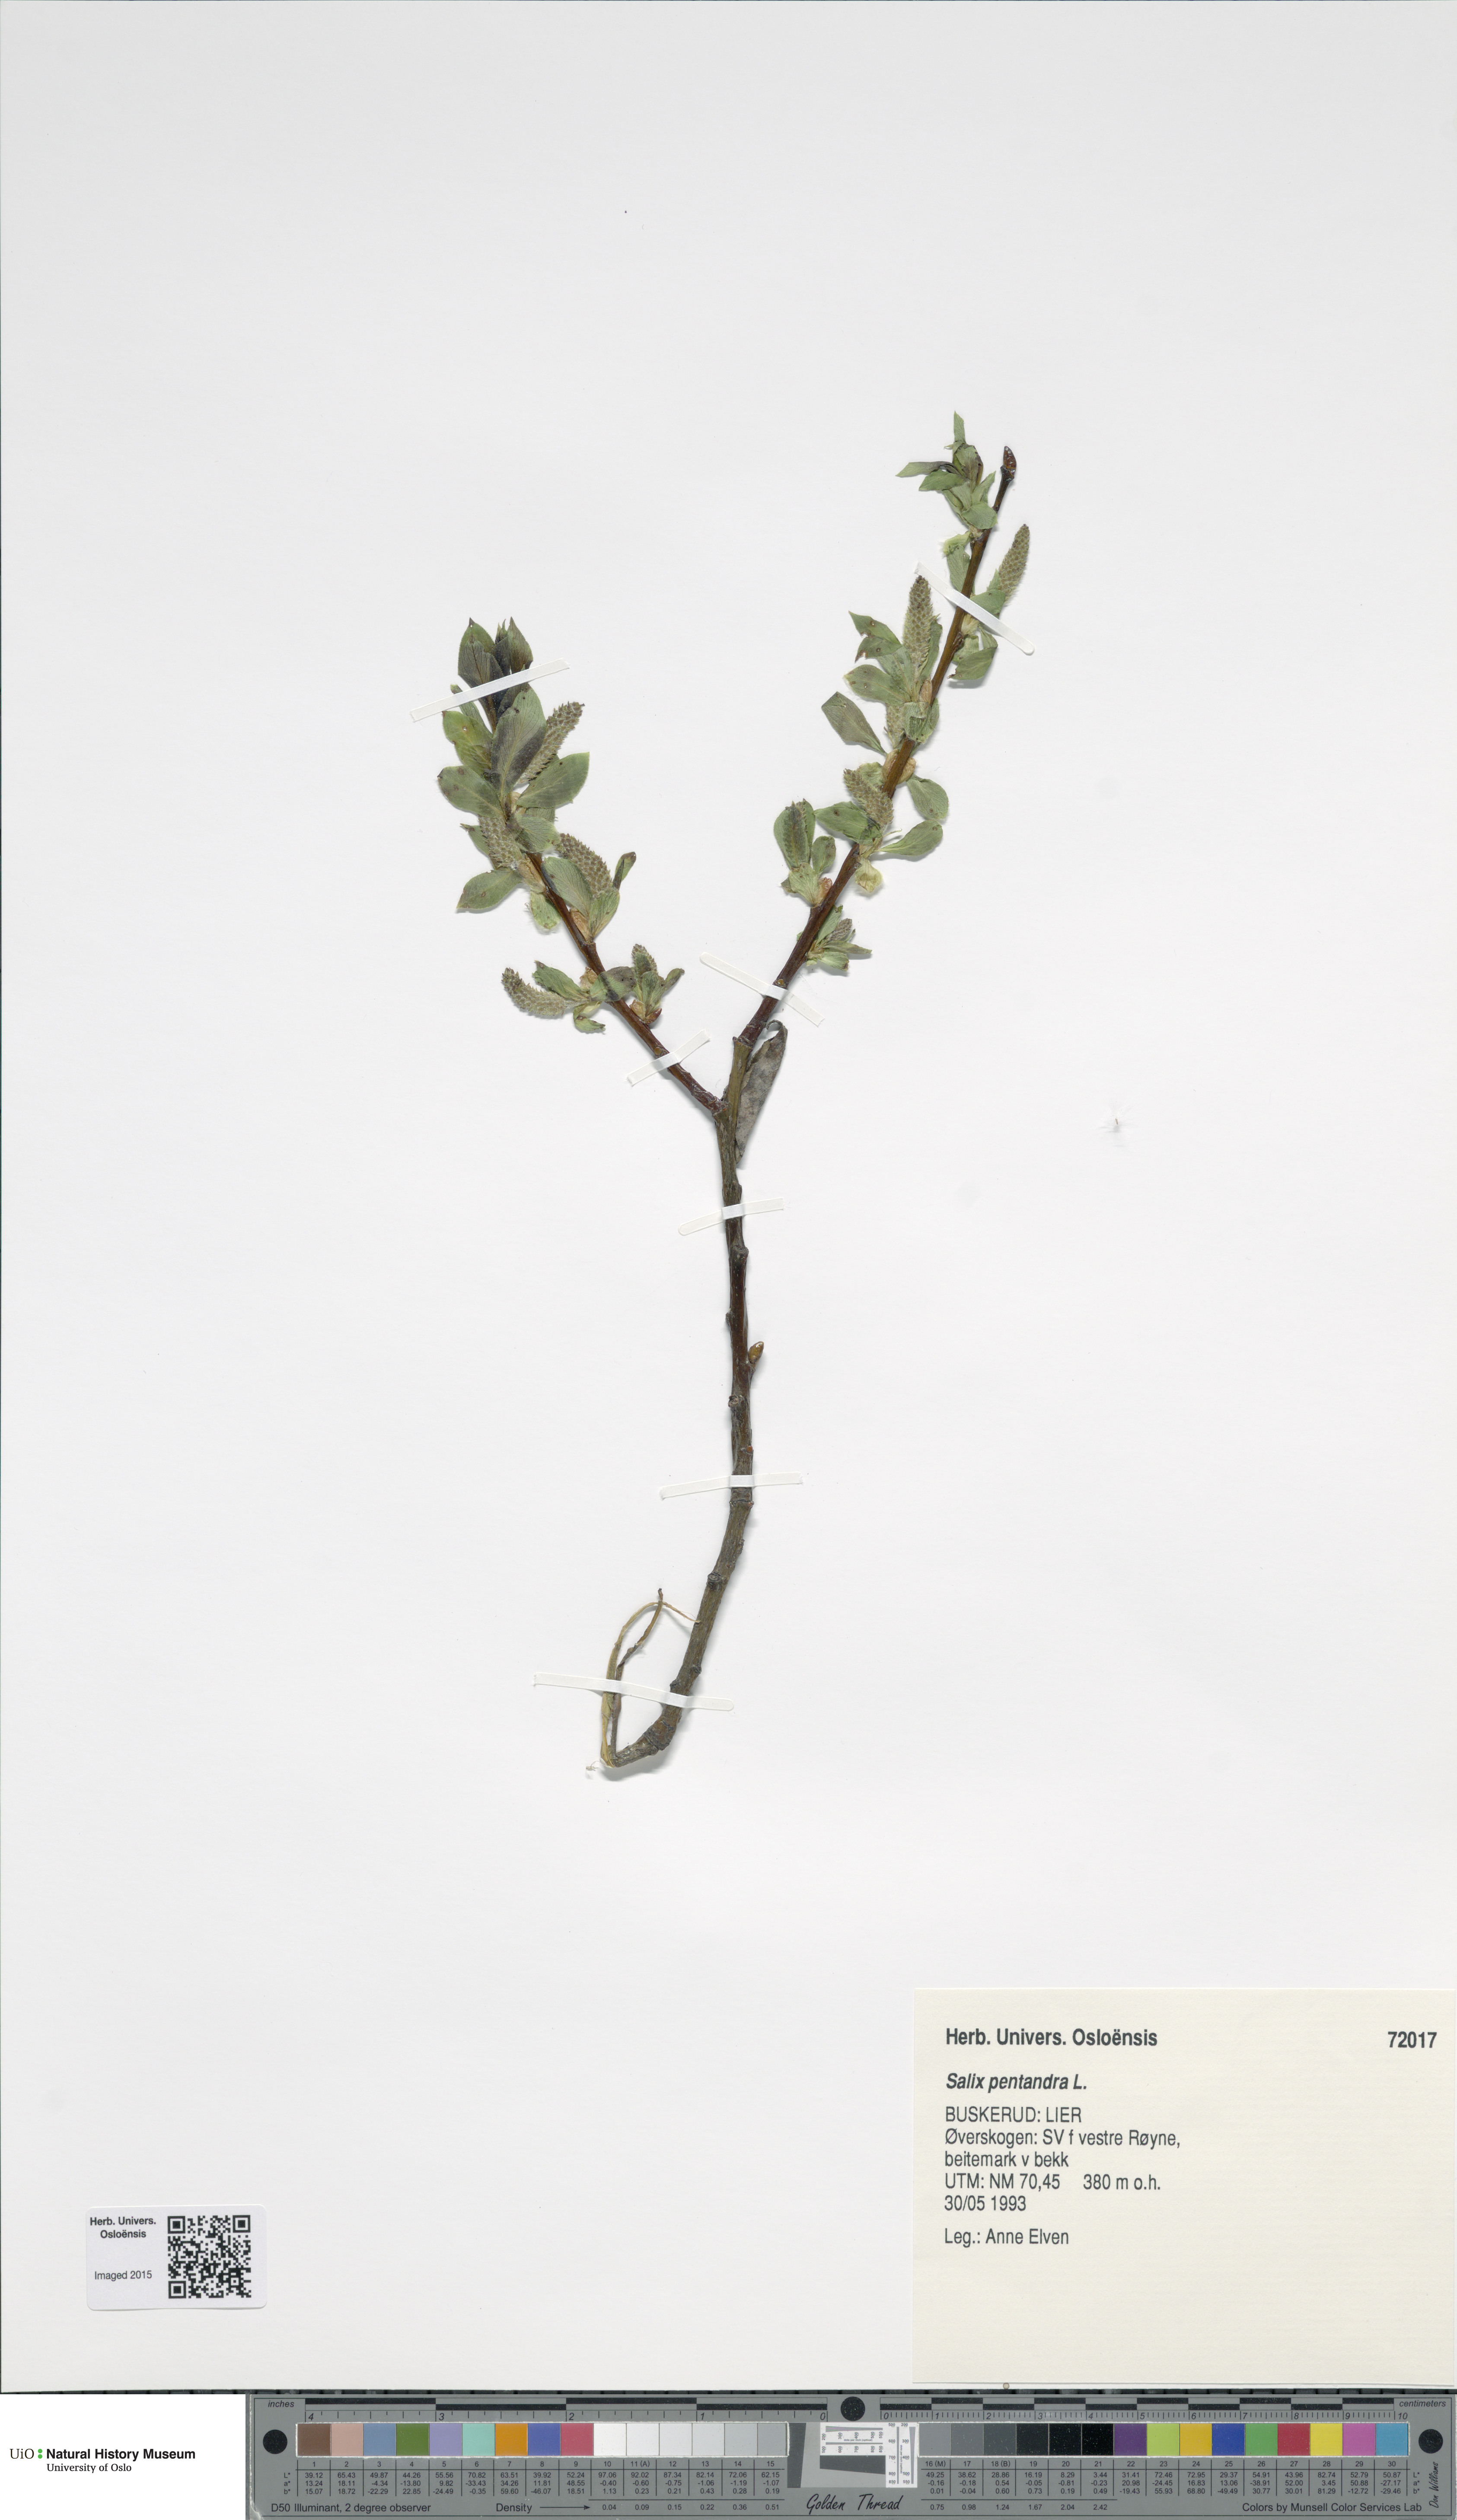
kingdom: Plantae
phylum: Tracheophyta
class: Magnoliopsida
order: Malpighiales
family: Salicaceae
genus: Salix
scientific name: Salix pentandra
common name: Bay willow
